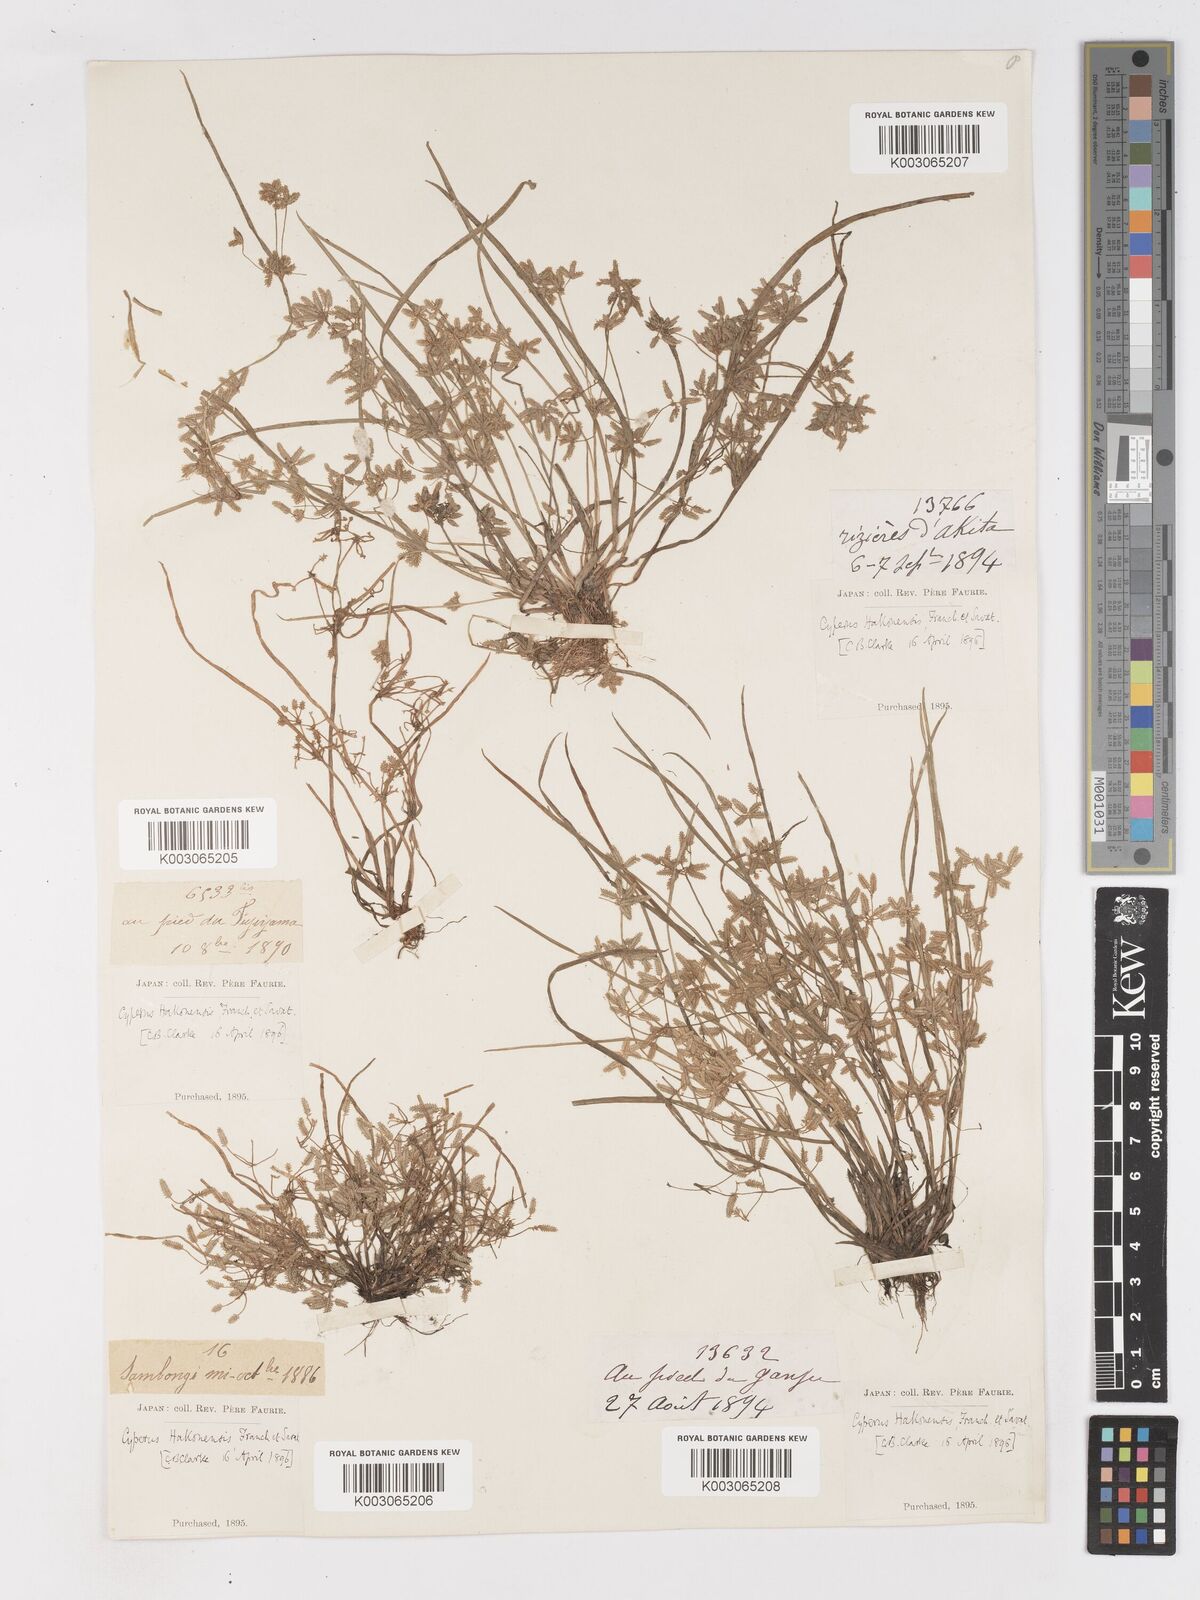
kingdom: Plantae
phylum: Tracheophyta
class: Liliopsida
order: Poales
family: Cyperaceae
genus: Cyperus
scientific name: Cyperus flaccidus
